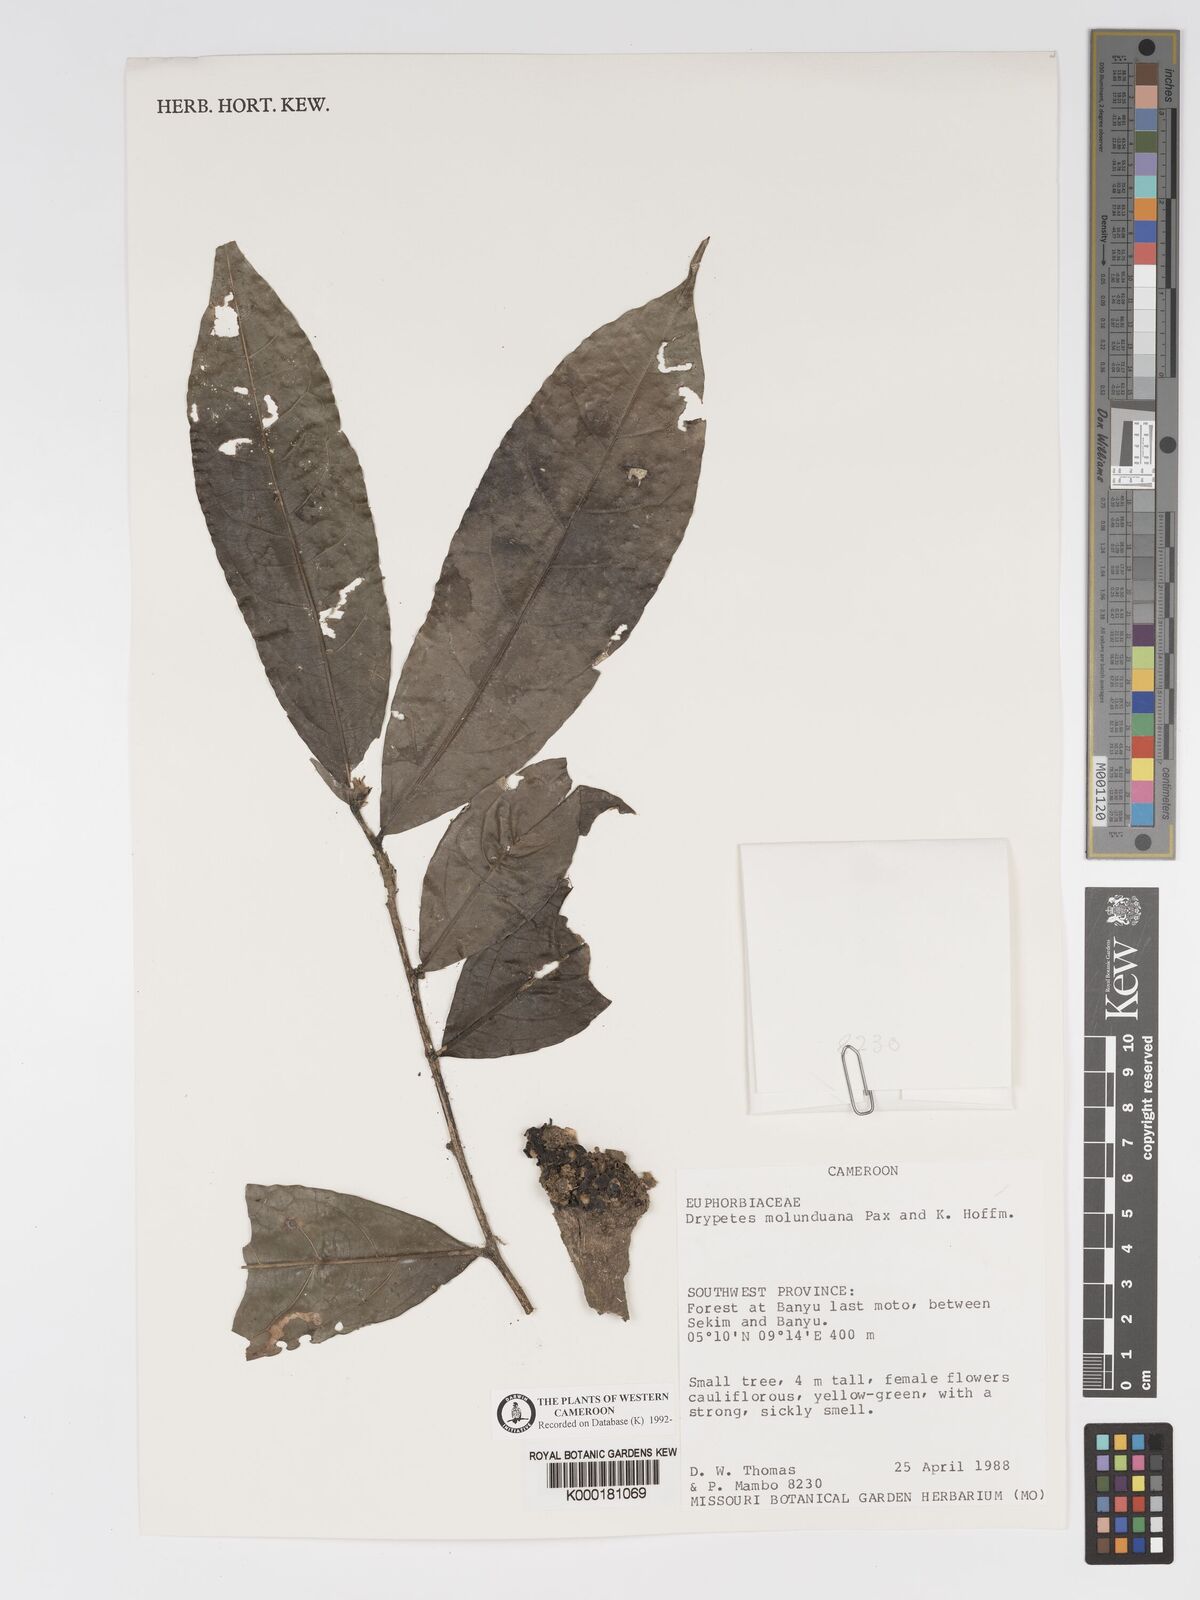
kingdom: Plantae
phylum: Tracheophyta
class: Magnoliopsida
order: Malpighiales
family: Putranjivaceae
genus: Drypetes
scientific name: Drypetes molunduana
